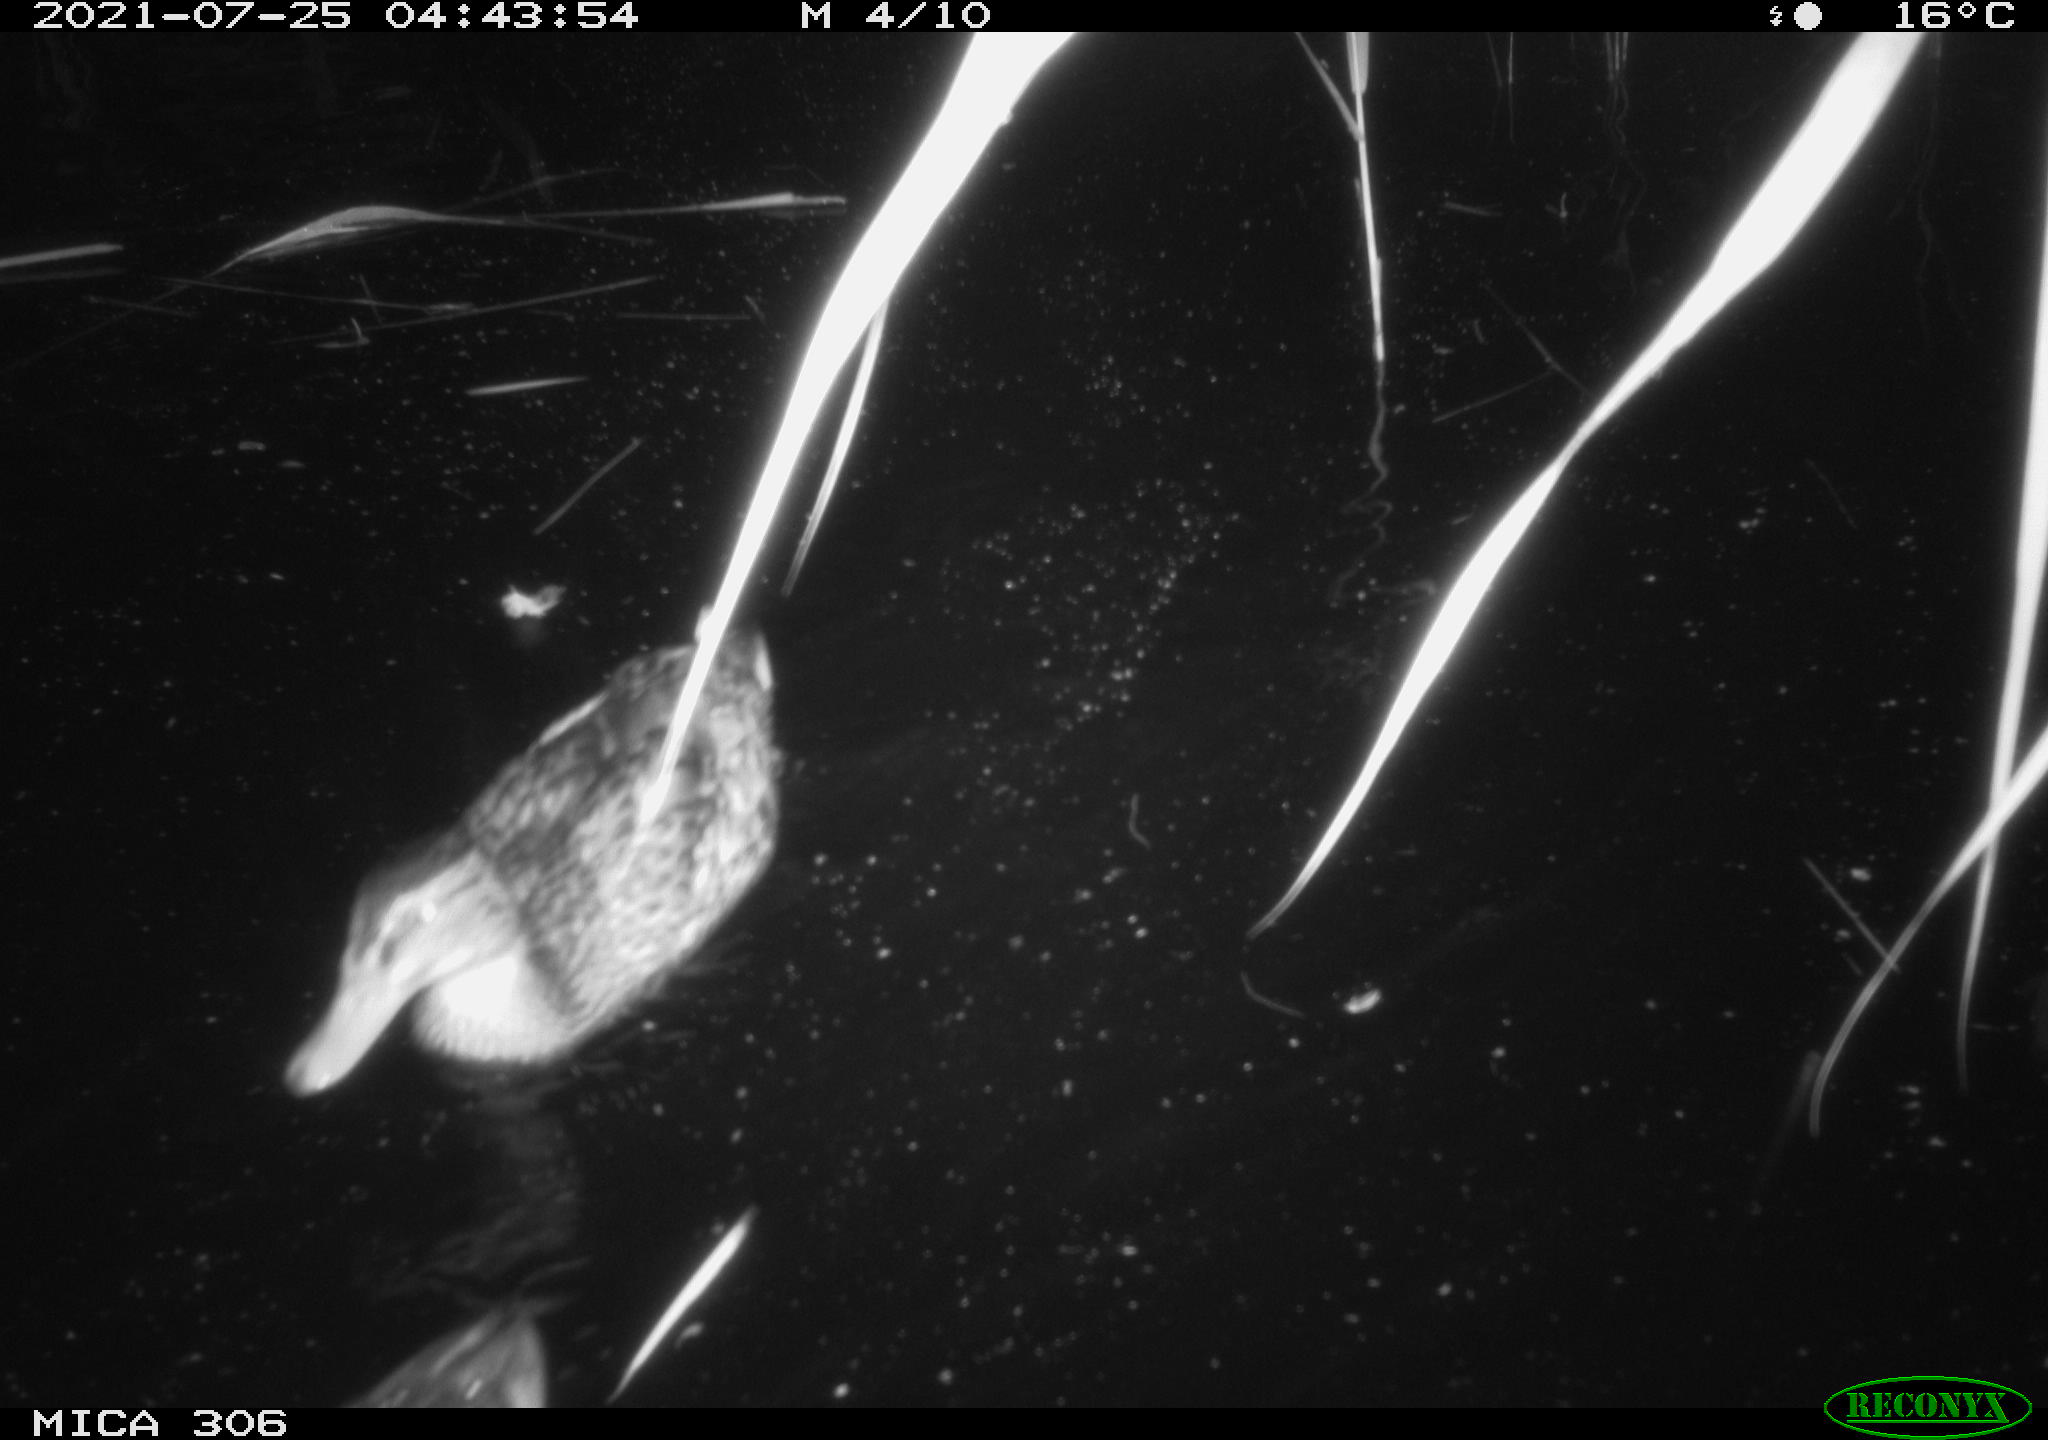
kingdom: Animalia
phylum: Chordata
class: Aves
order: Anseriformes
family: Anatidae
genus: Anas
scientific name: Anas
